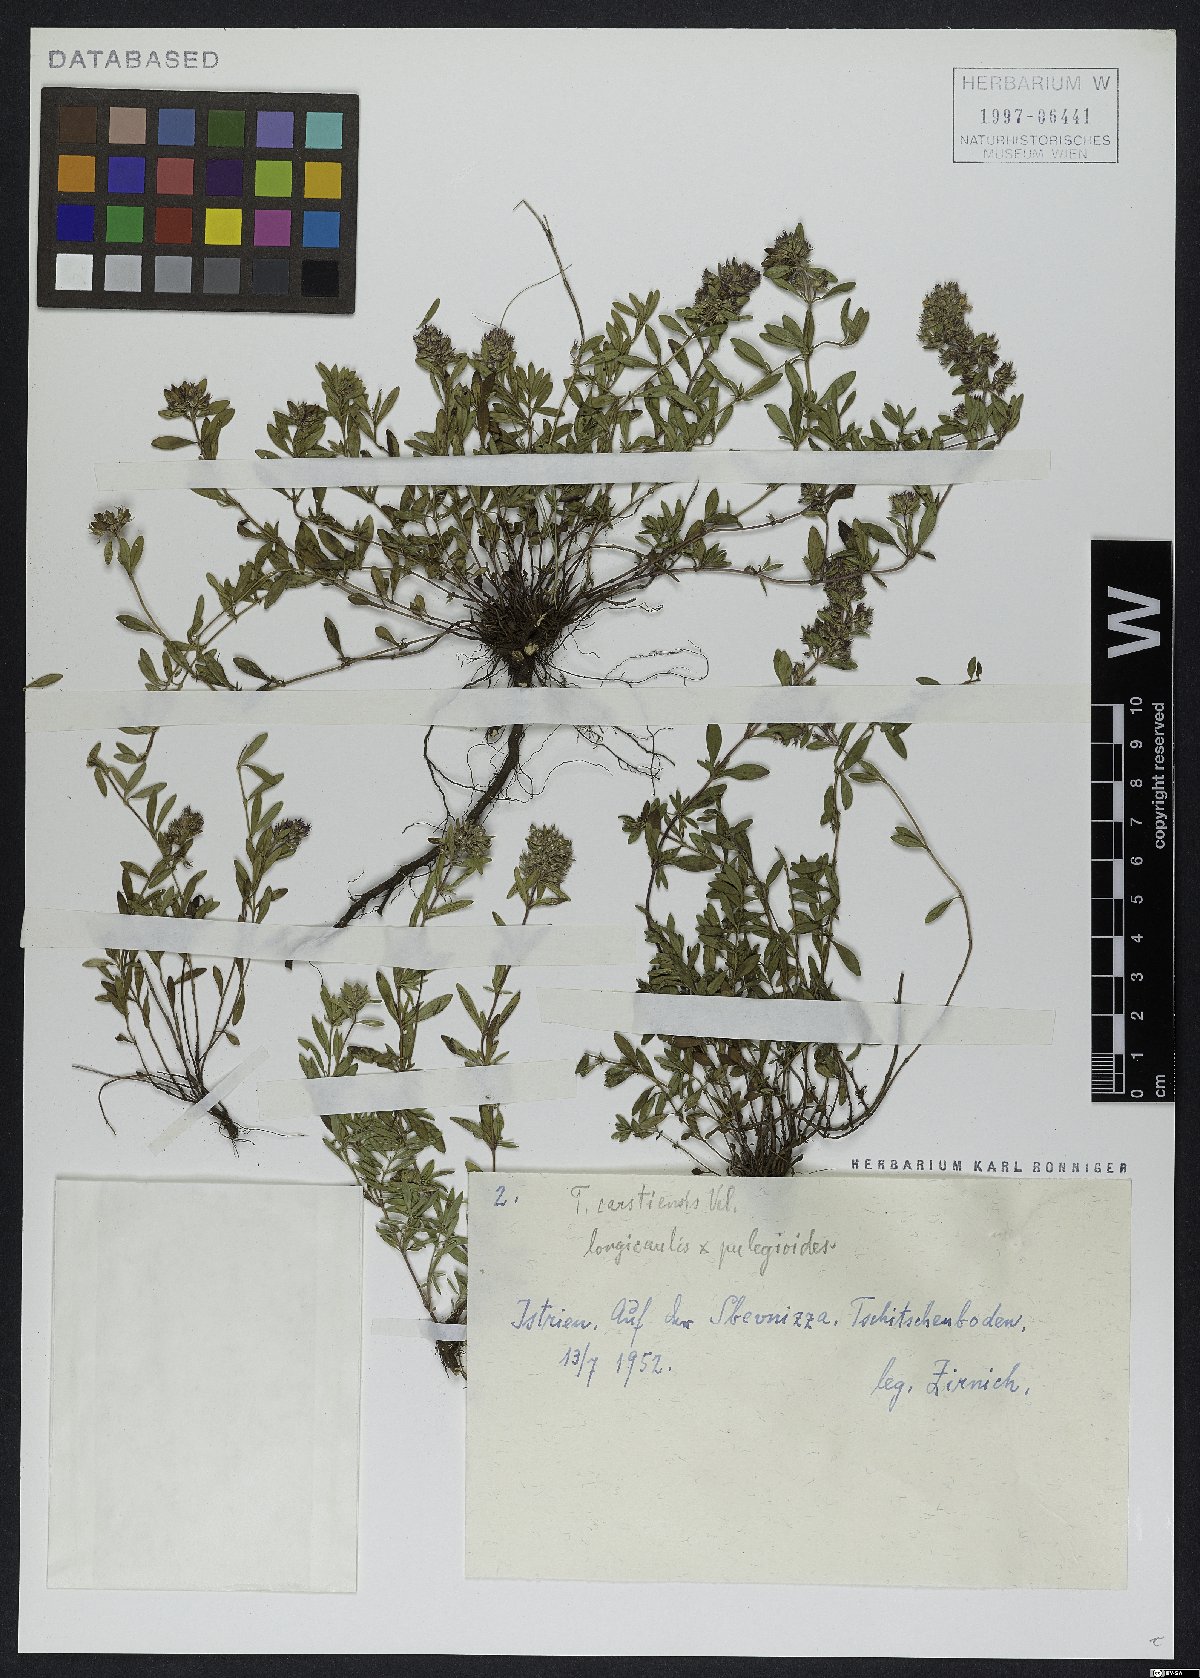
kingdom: Plantae
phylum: Tracheophyta
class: Magnoliopsida
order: Lamiales
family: Lamiaceae
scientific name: Lamiaceae
